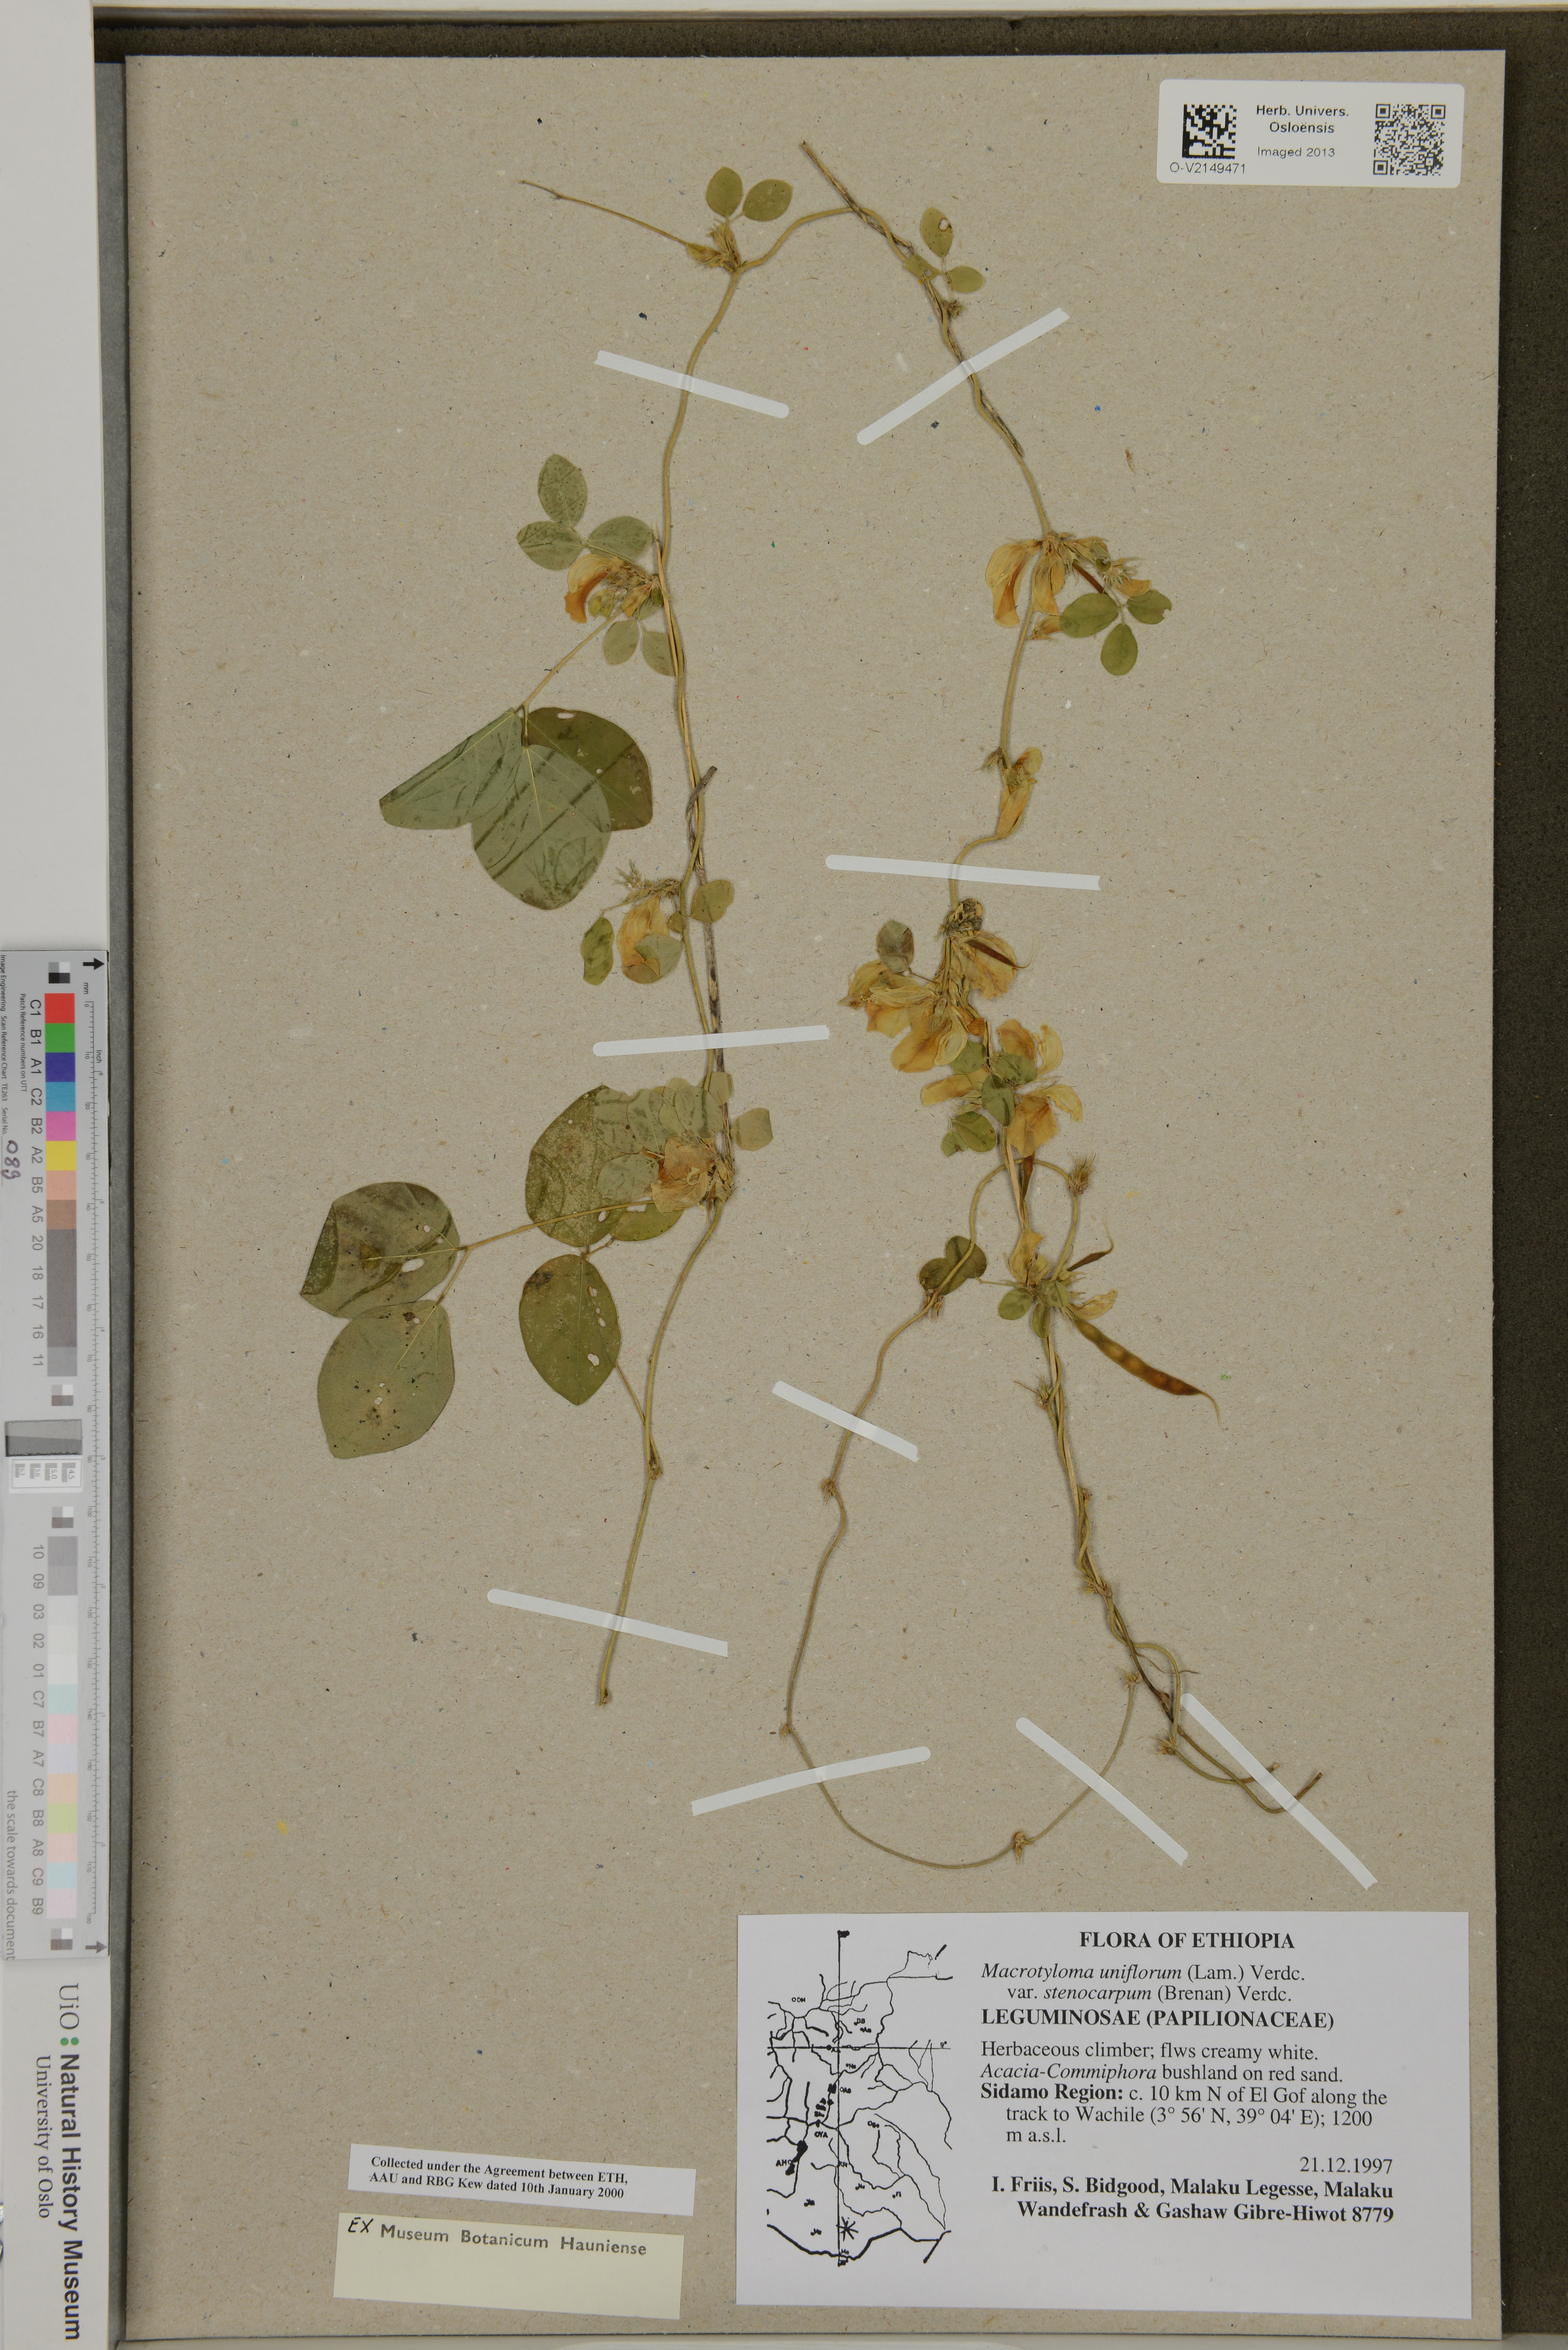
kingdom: Plantae
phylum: Tracheophyta
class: Magnoliopsida
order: Fabales
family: Fabaceae
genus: Macrotyloma
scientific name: Macrotyloma uniflorum
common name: Horse gram
